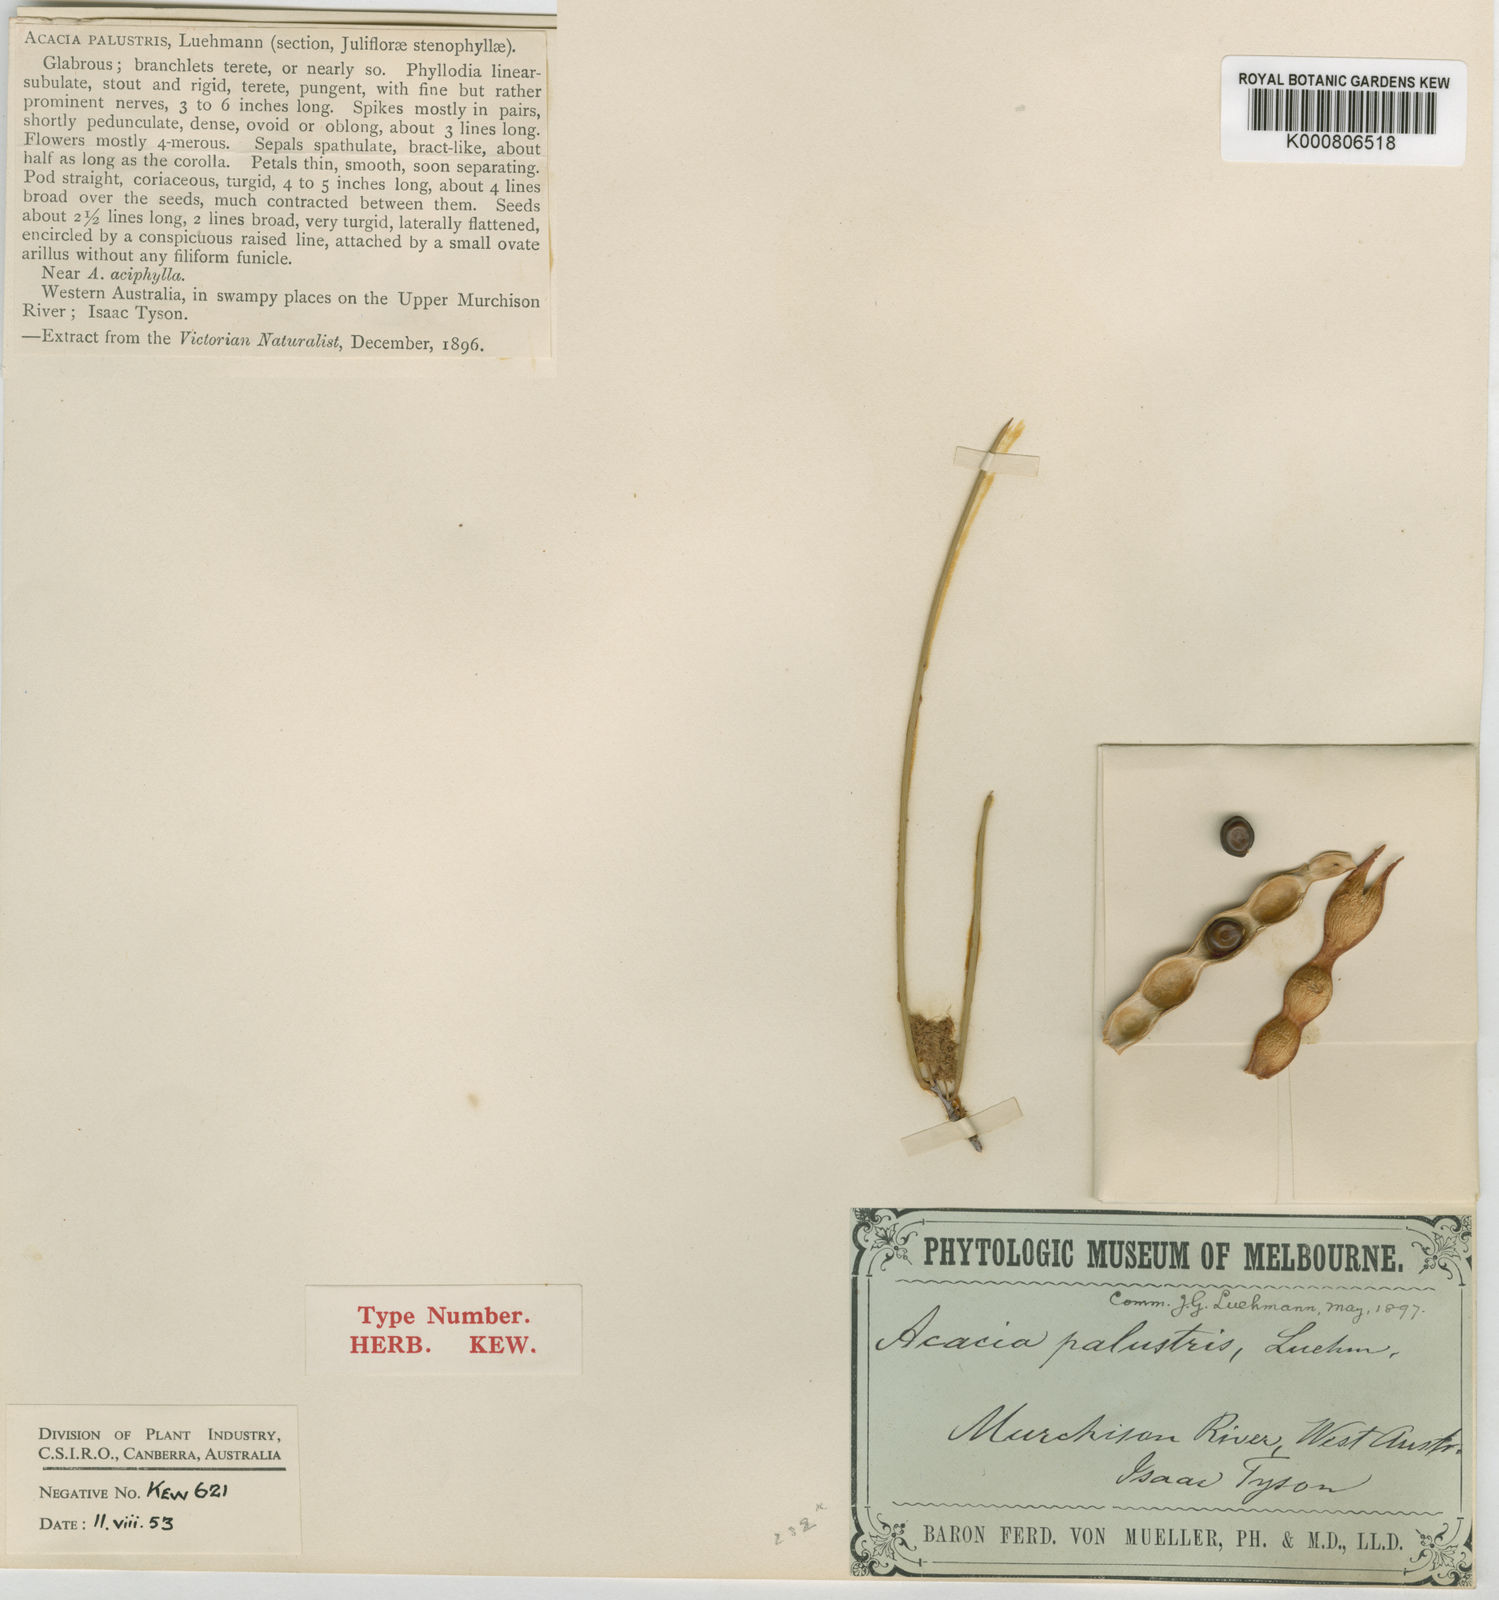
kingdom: Plantae
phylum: Tracheophyta
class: Magnoliopsida
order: Fabales
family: Fabaceae
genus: Acacia
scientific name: Acacia palustris
